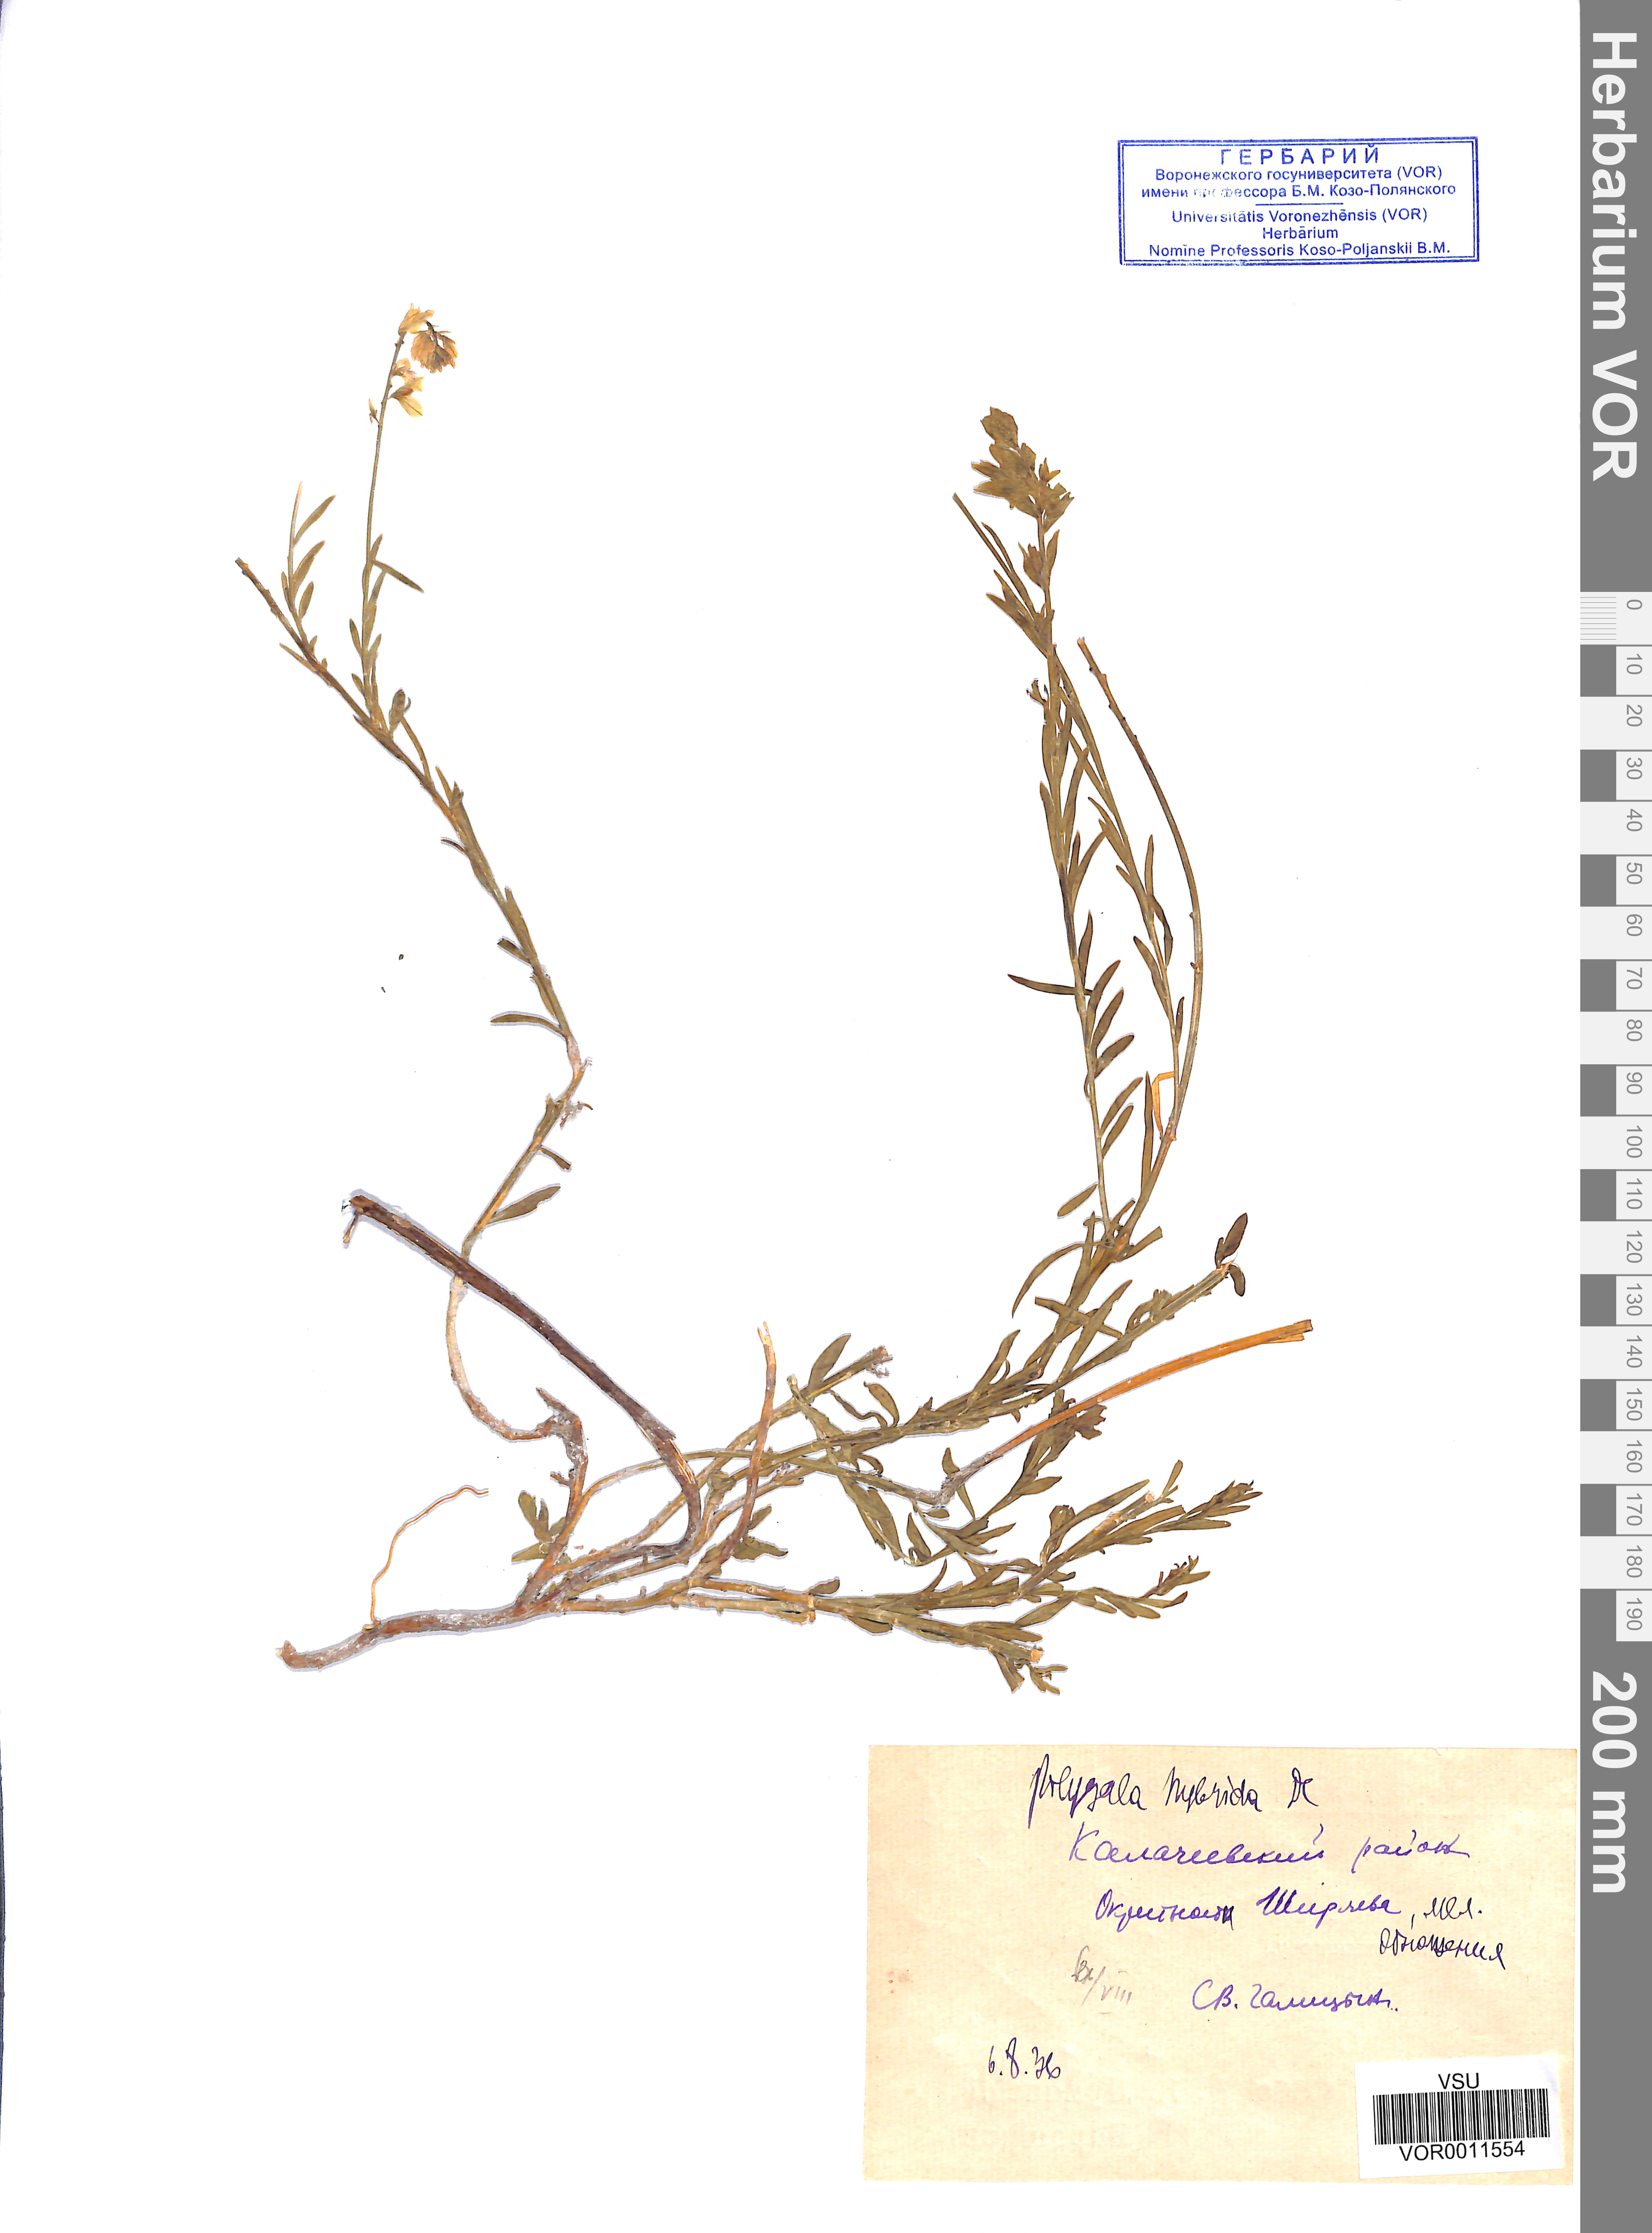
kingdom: Plantae
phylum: Tracheophyta
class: Magnoliopsida
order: Fabales
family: Polygalaceae
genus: Polygala
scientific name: Polygala comosa
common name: Tufted milkwort
